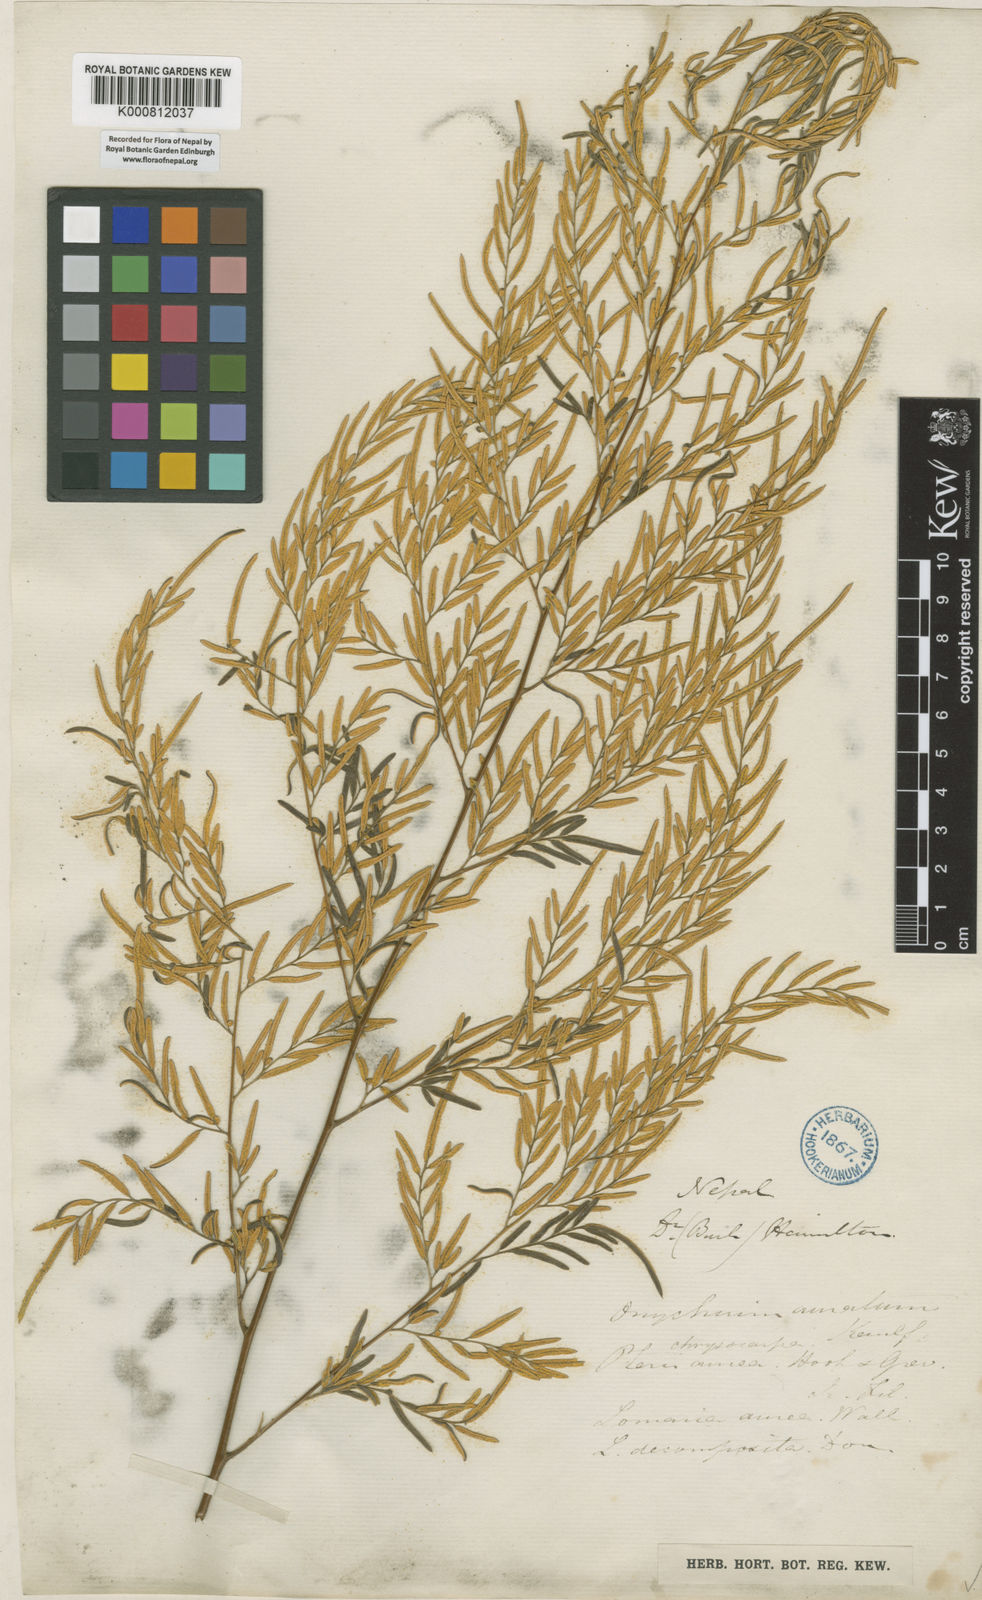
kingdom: Plantae
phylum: Tracheophyta
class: Polypodiopsida
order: Polypodiales
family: Pteridaceae
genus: Onychium
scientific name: Onychium siliculosum
